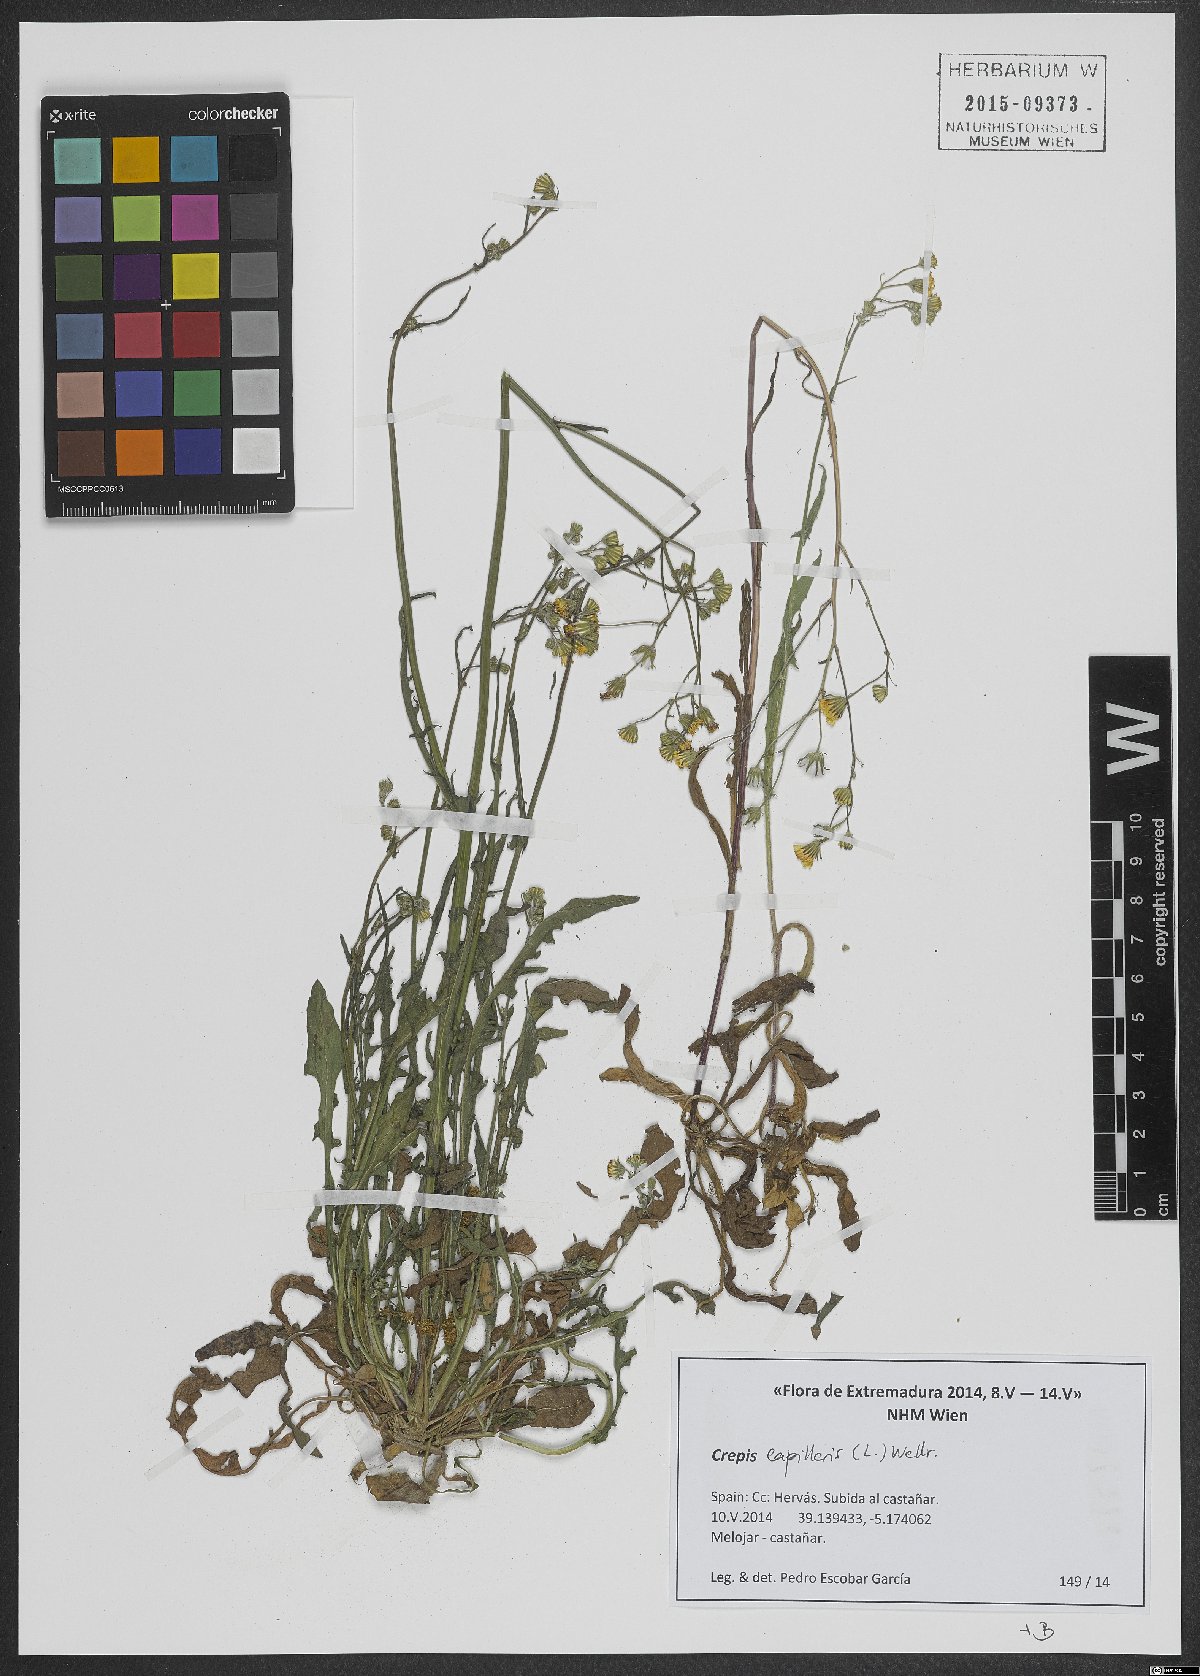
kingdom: Plantae
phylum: Tracheophyta
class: Magnoliopsida
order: Asterales
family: Asteraceae
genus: Crepis
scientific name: Crepis capillaris
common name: Smooth hawksbeard
